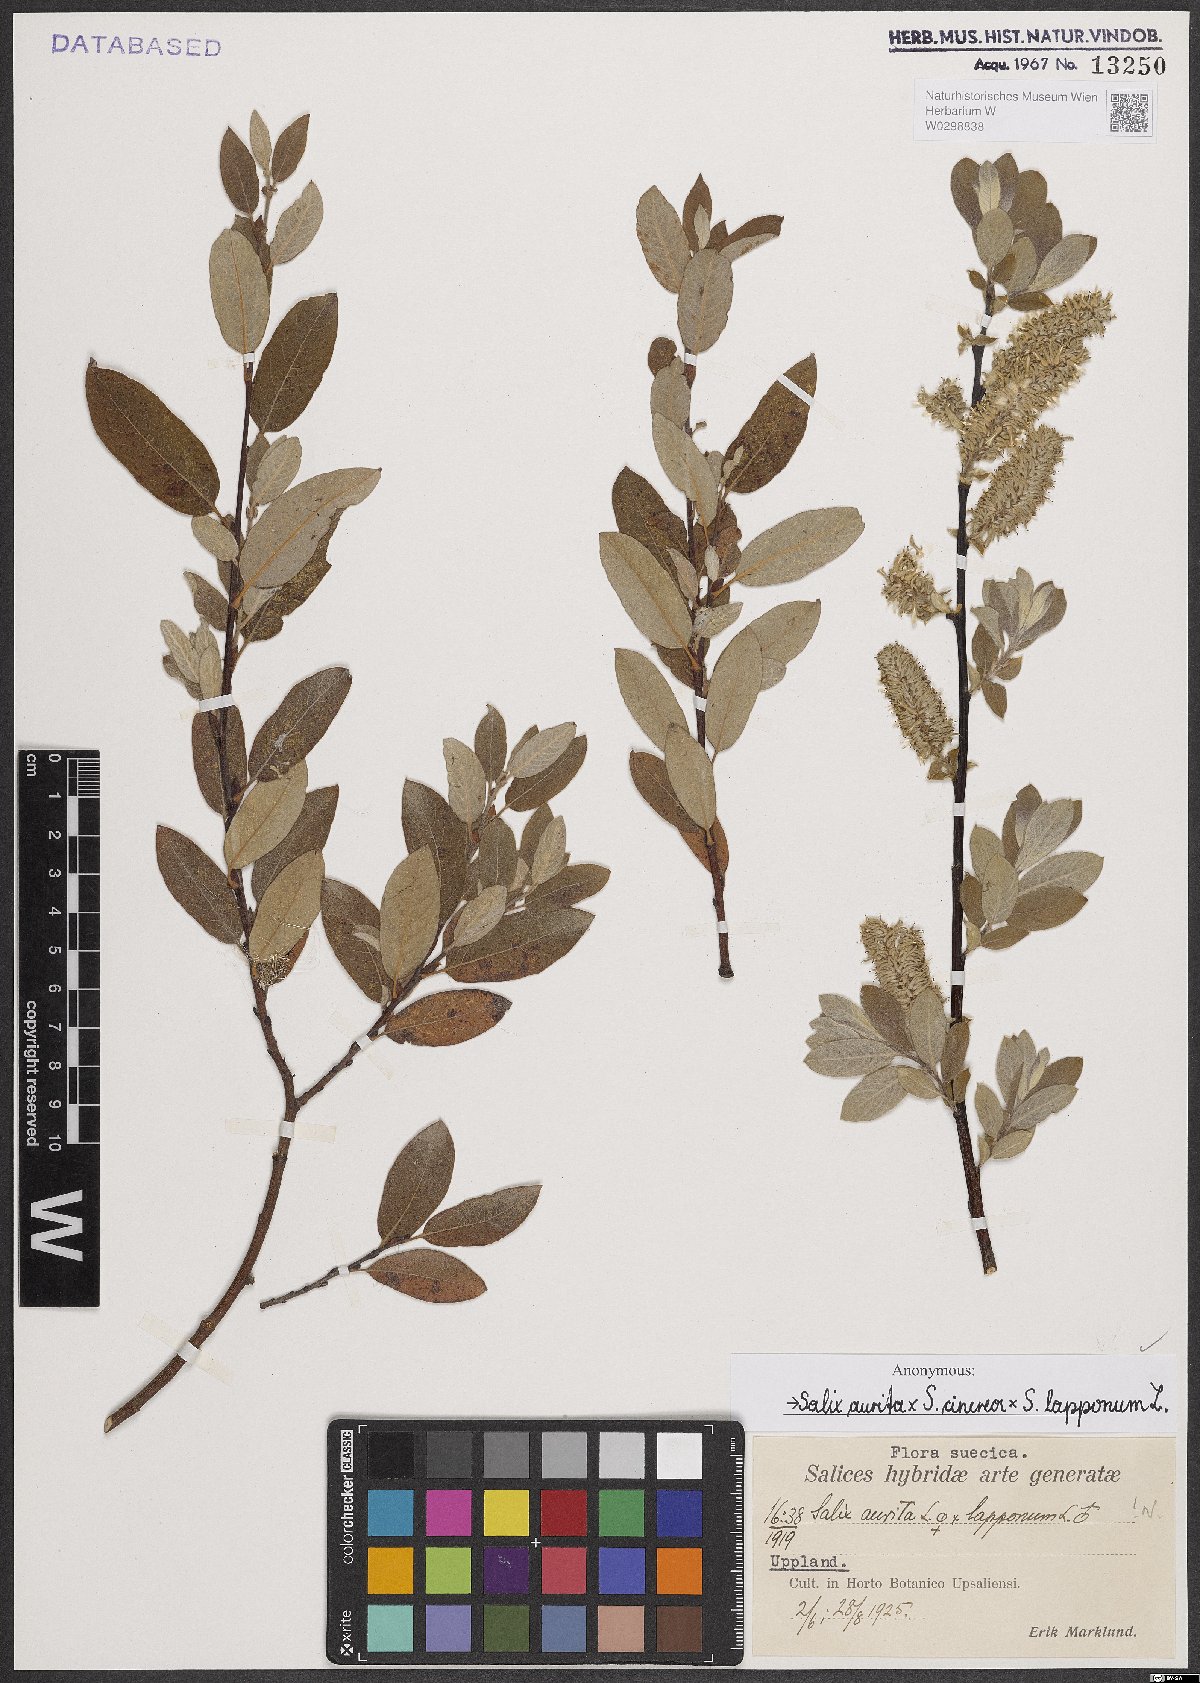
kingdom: Plantae
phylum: Tracheophyta
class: Magnoliopsida
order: Malpighiales
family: Salicaceae
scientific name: Salicaceae
